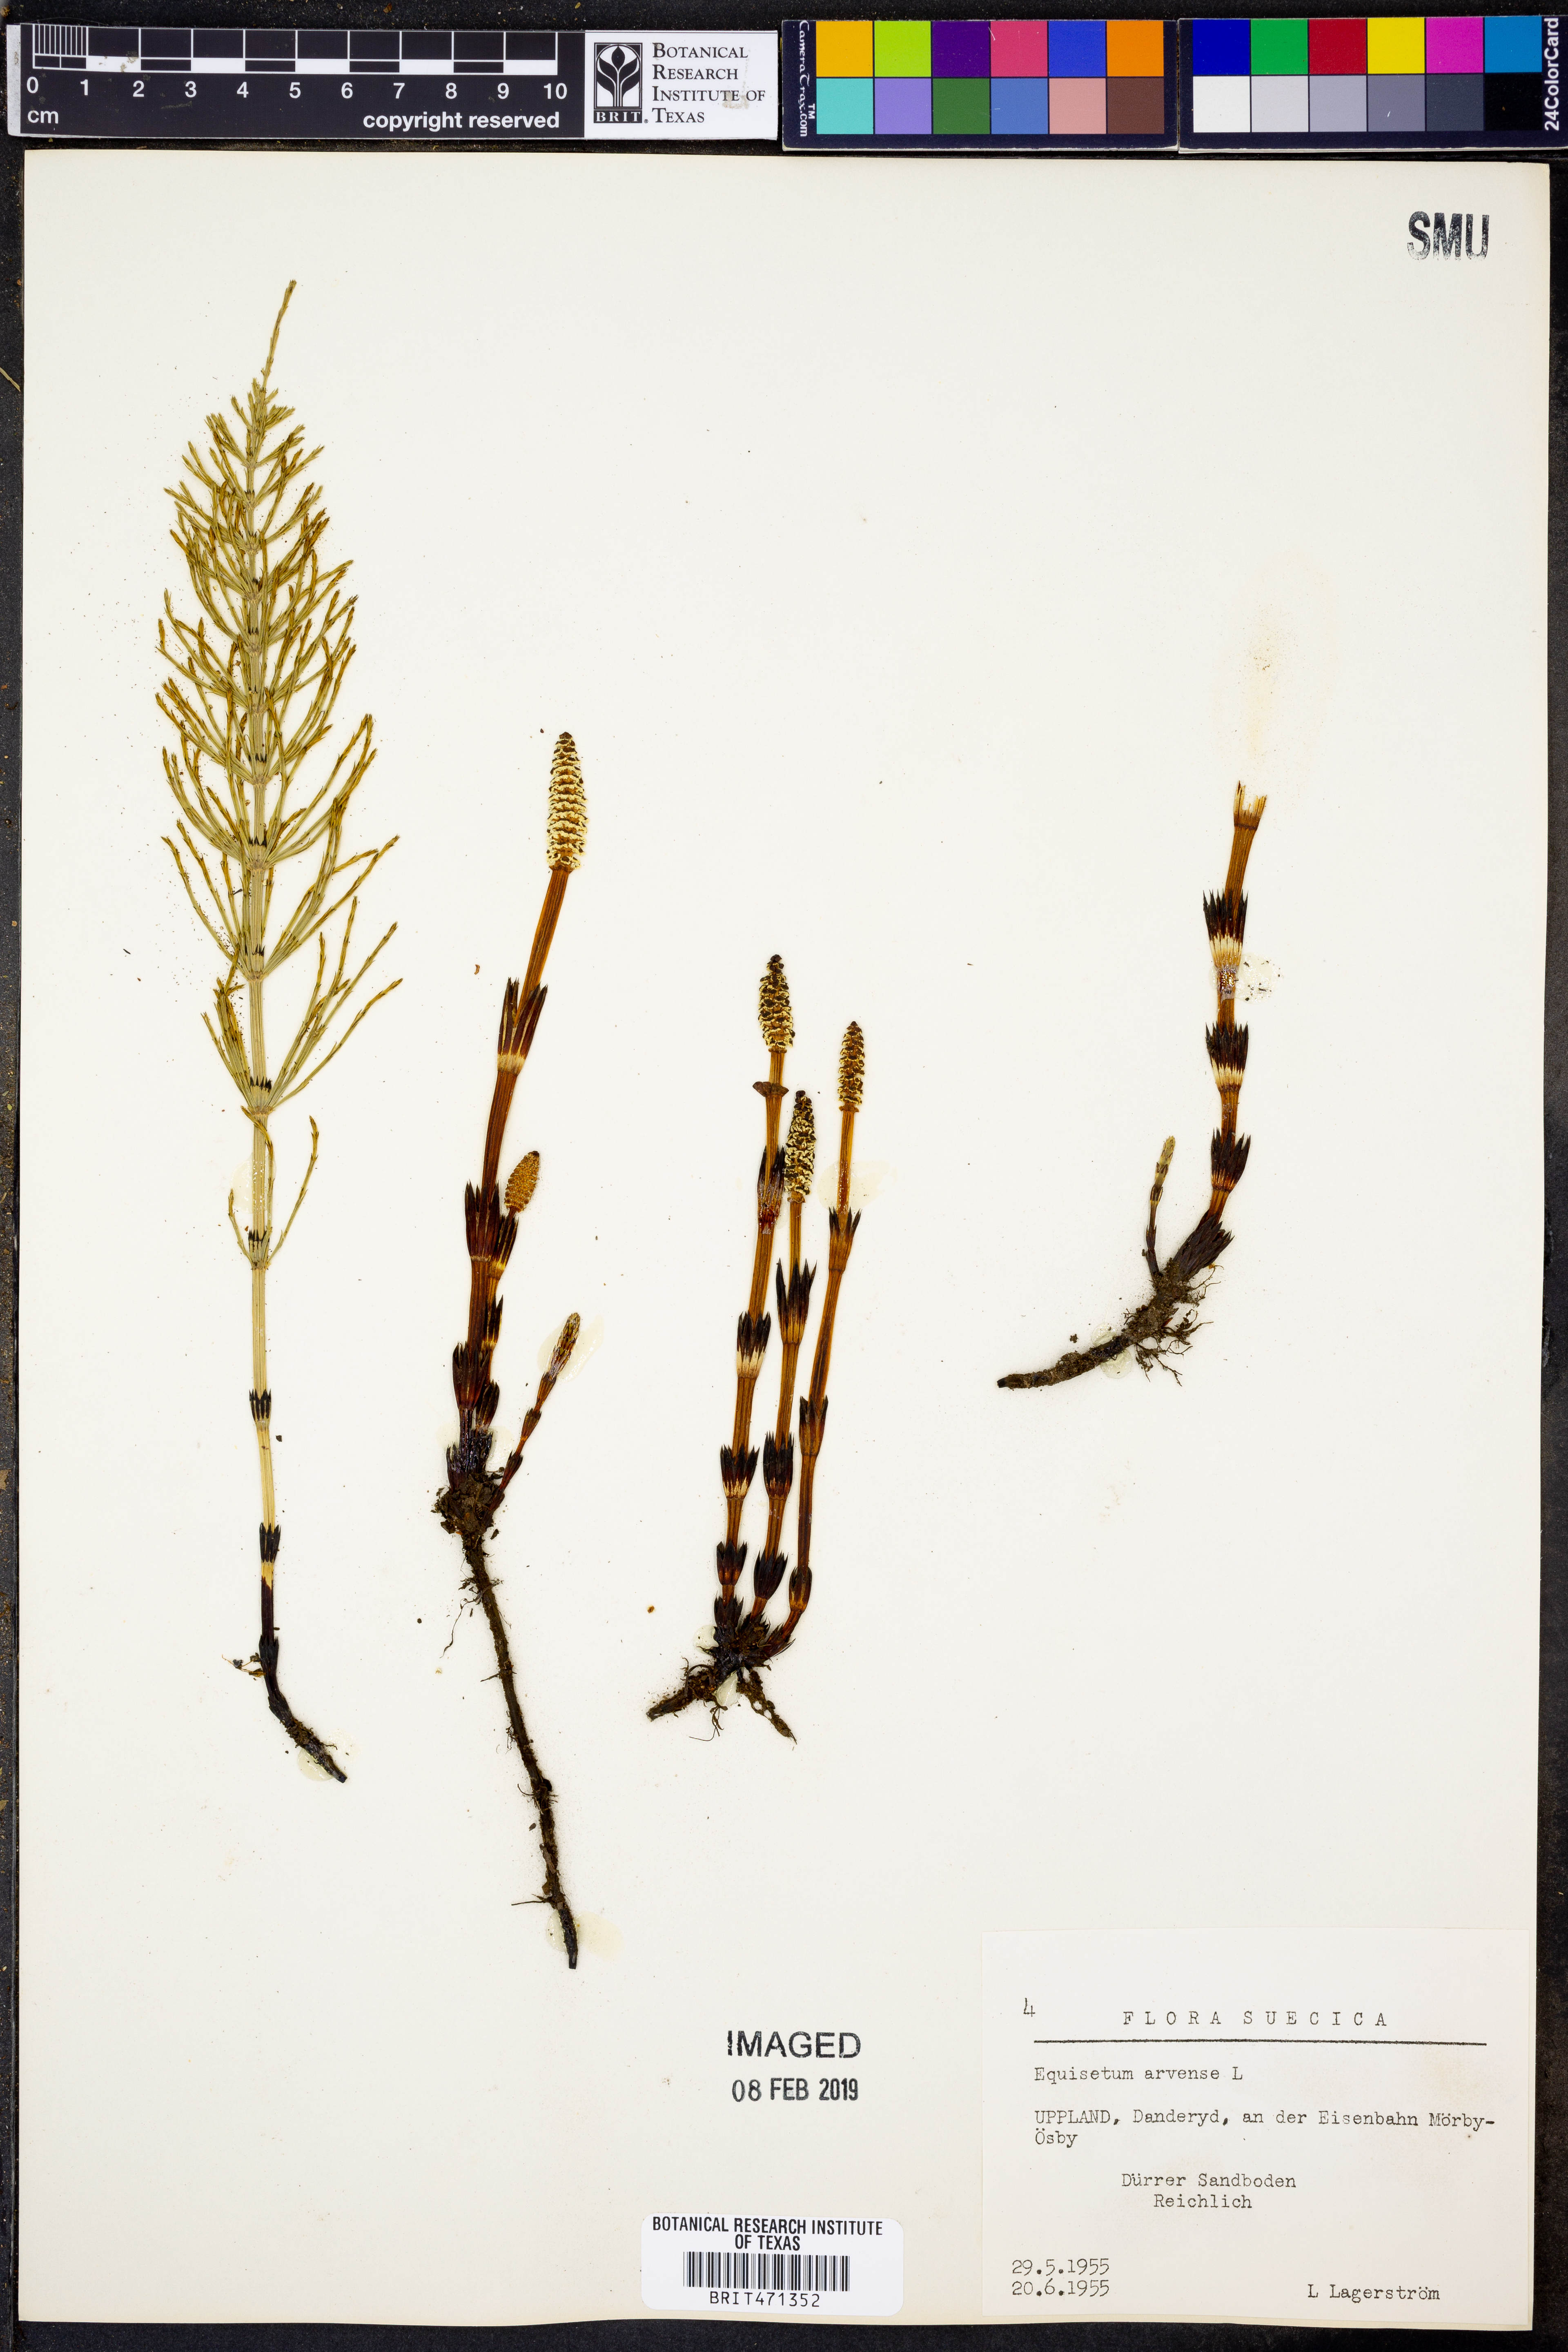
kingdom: Plantae
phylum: Tracheophyta
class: Polypodiopsida
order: Equisetales
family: Equisetaceae
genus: Equisetum
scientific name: Equisetum arvense
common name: Field horsetail
